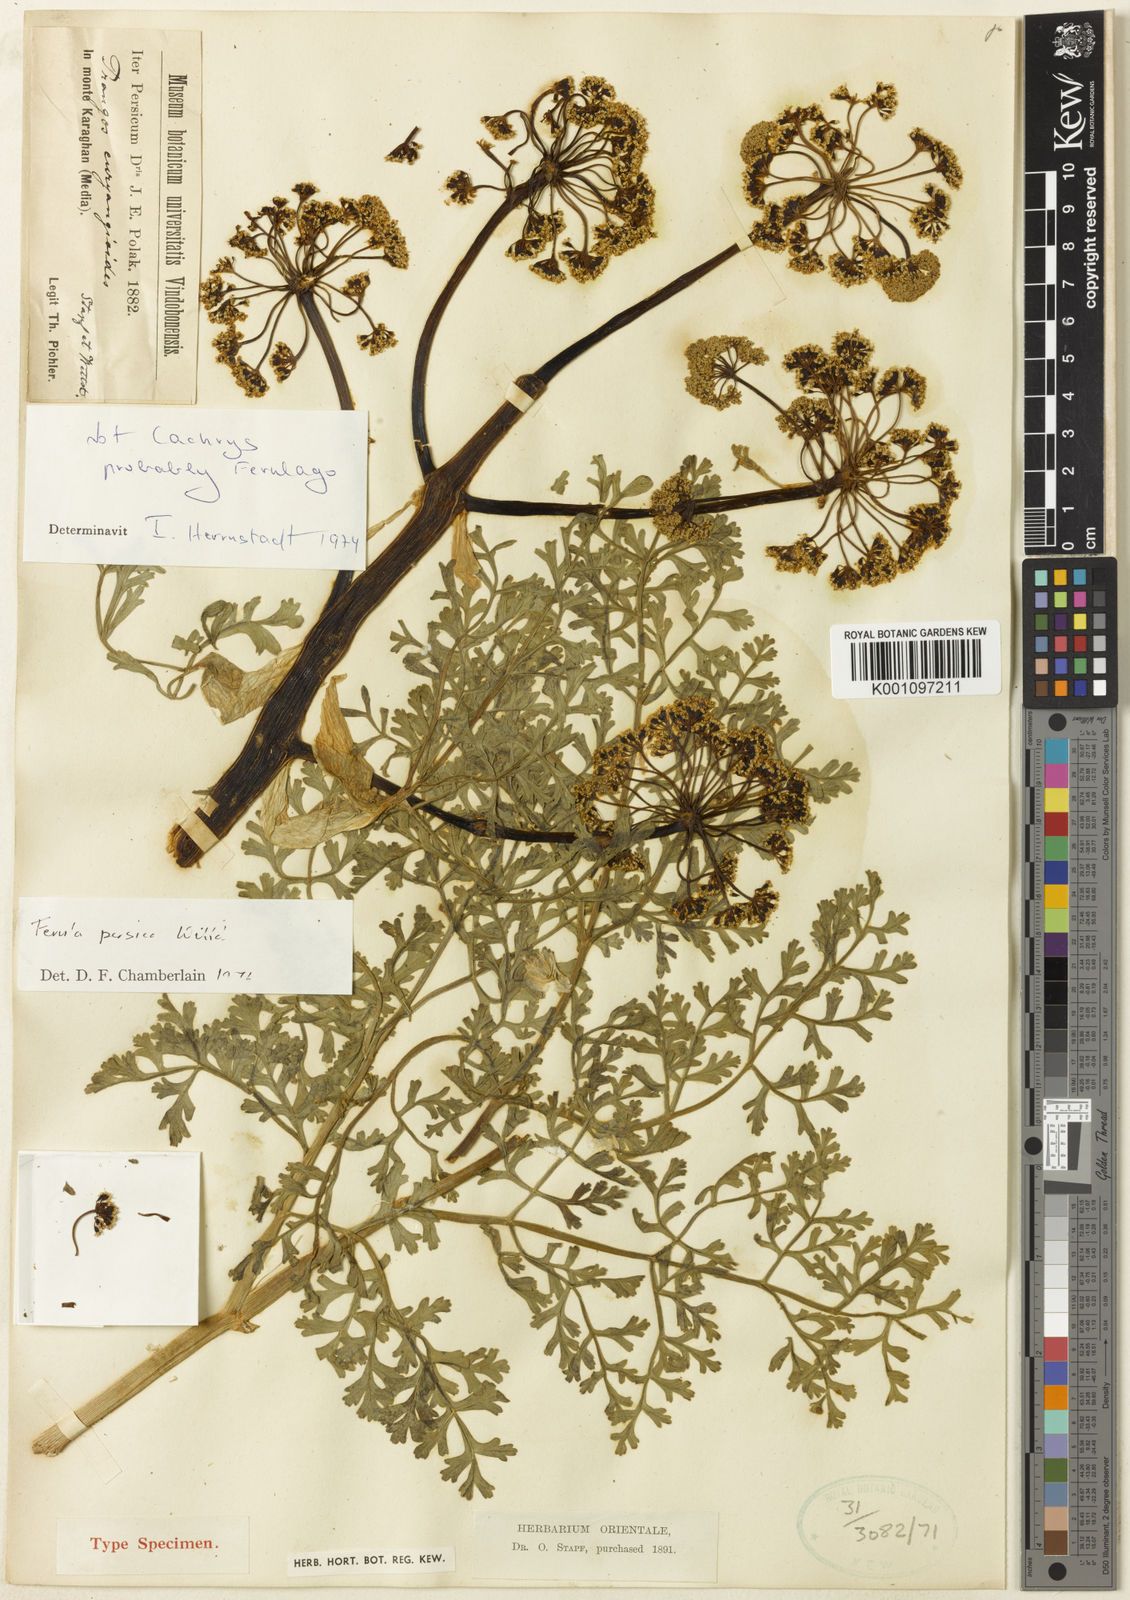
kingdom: Plantae
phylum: Tracheophyta
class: Magnoliopsida
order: Apiales
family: Apiaceae
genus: Ferula
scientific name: Ferula persica
